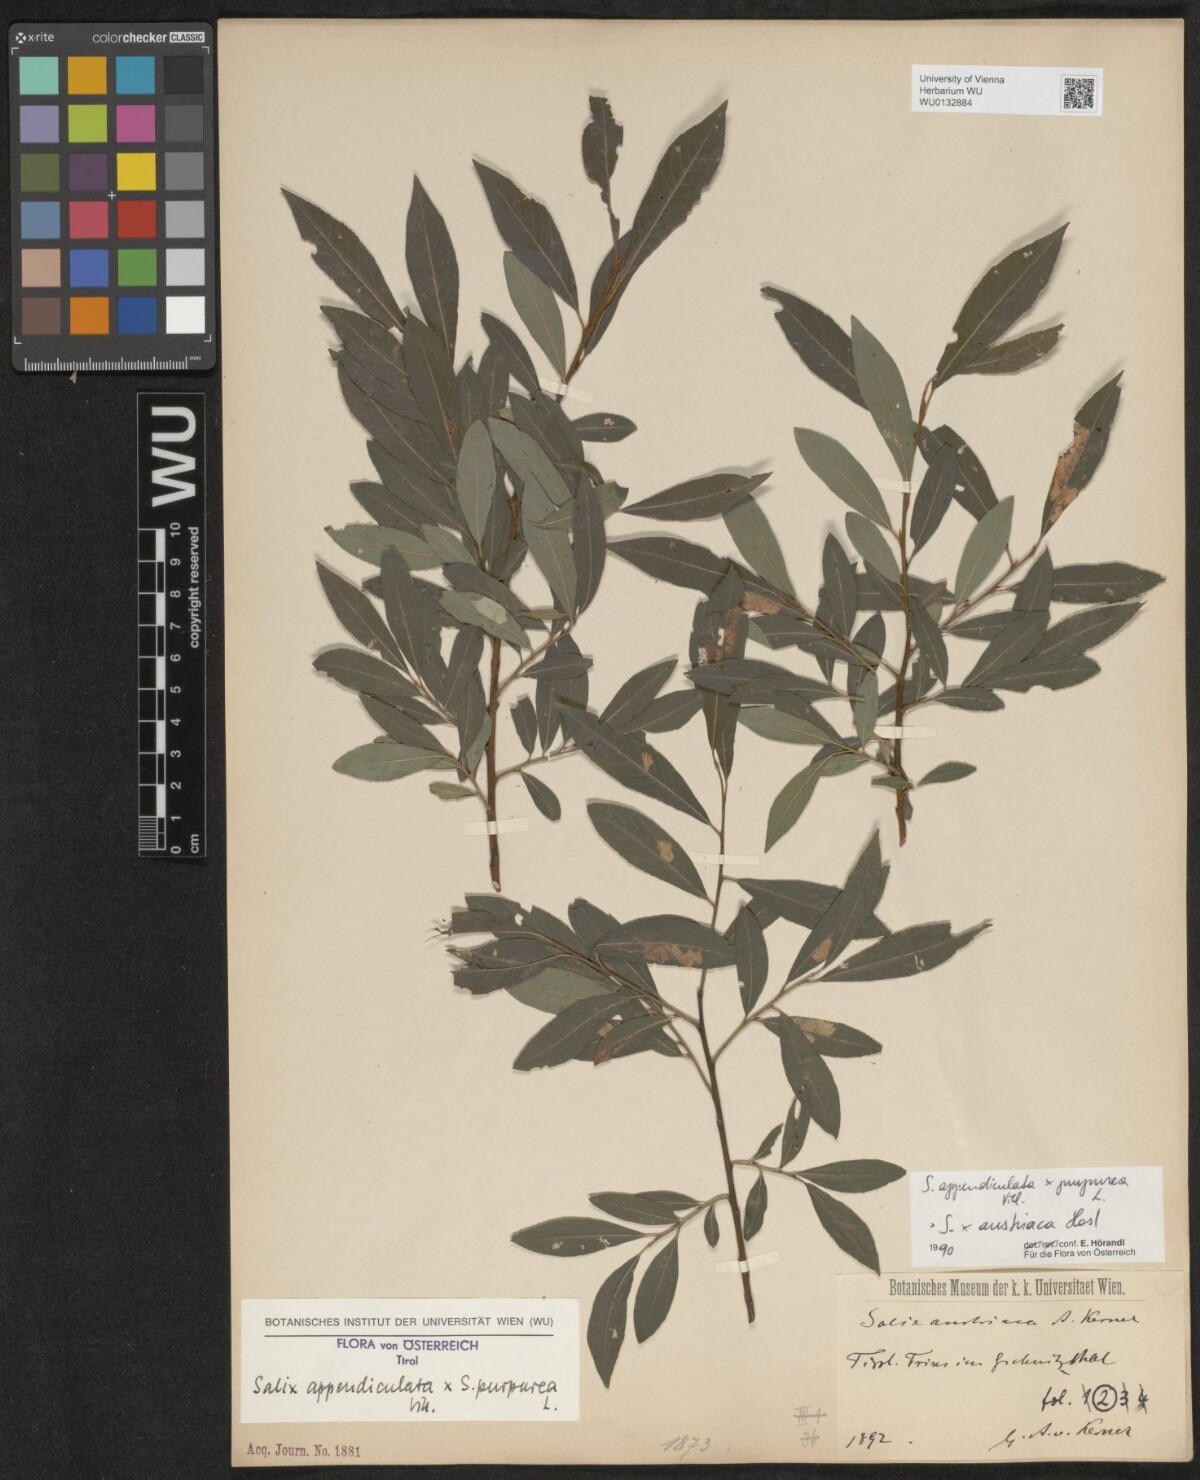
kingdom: Plantae
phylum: Tracheophyta
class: Magnoliopsida
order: Malpighiales
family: Salicaceae
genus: Salix
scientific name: Salix austriaca
